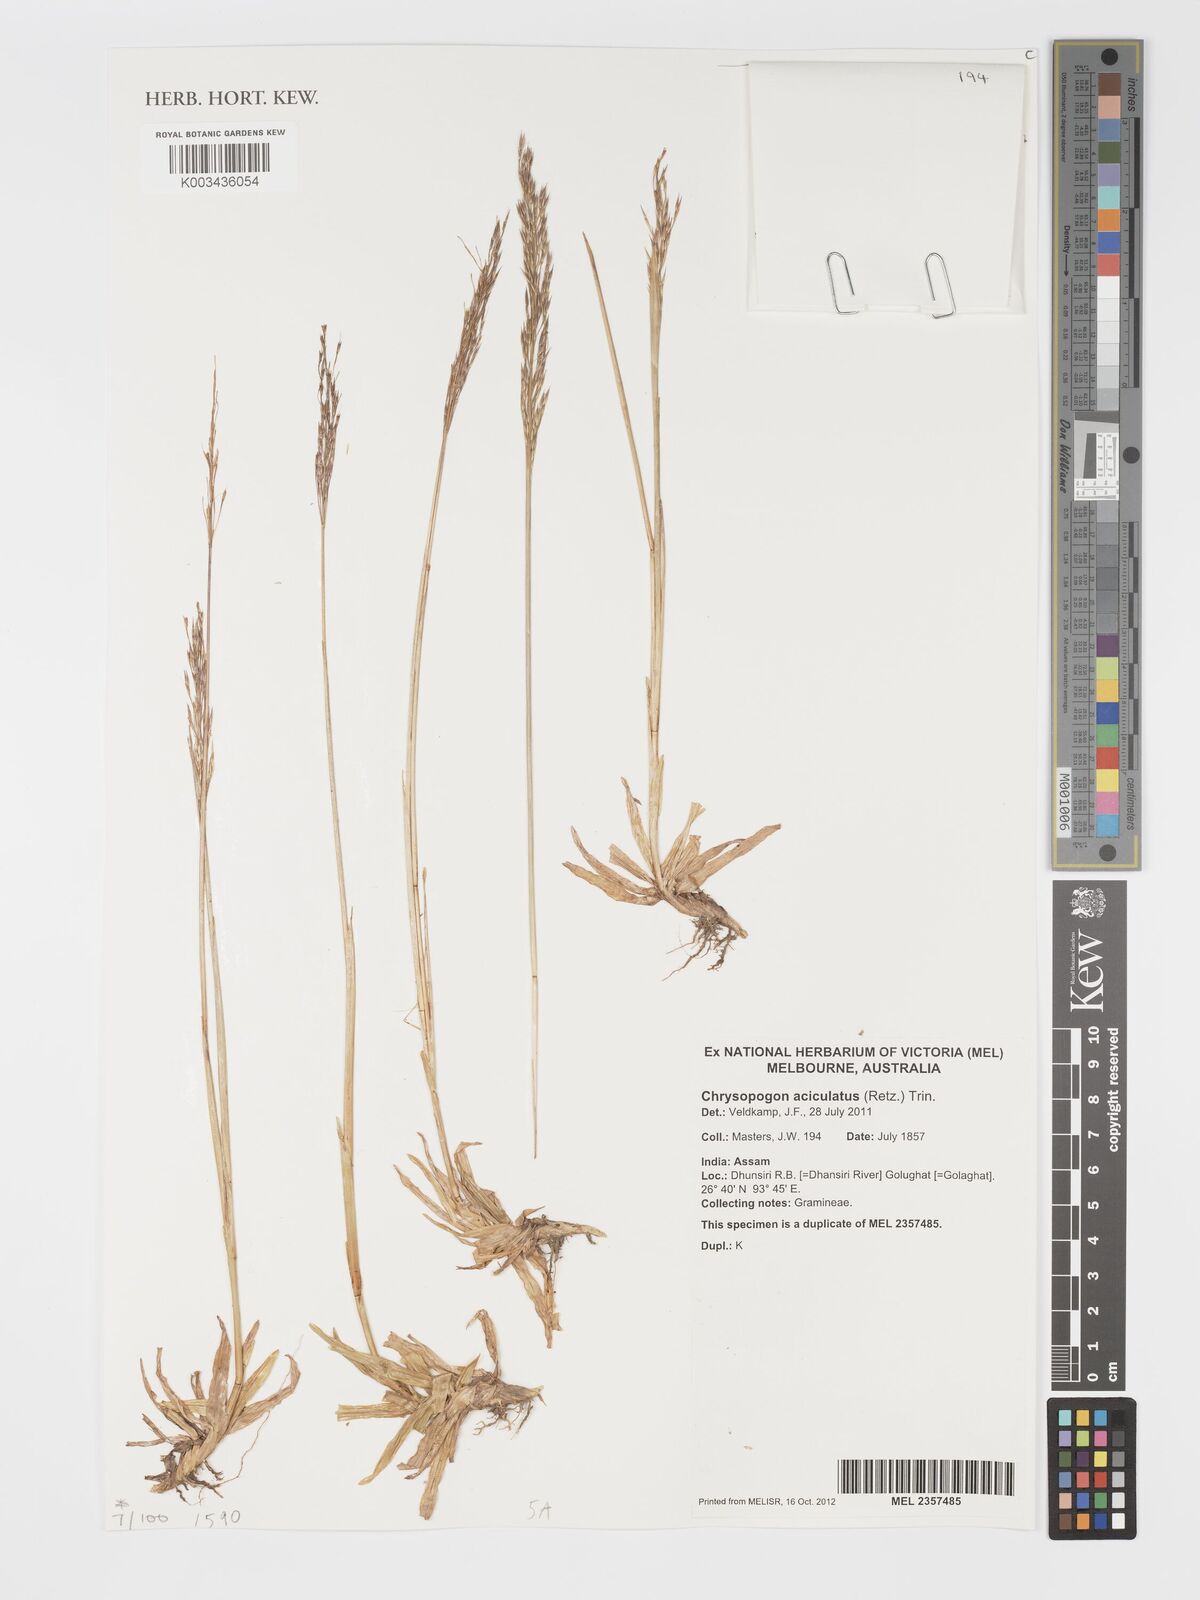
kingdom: Plantae
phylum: Tracheophyta
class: Liliopsida
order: Poales
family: Poaceae
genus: Chrysopogon
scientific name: Chrysopogon aciculatus
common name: Pilipiliula
